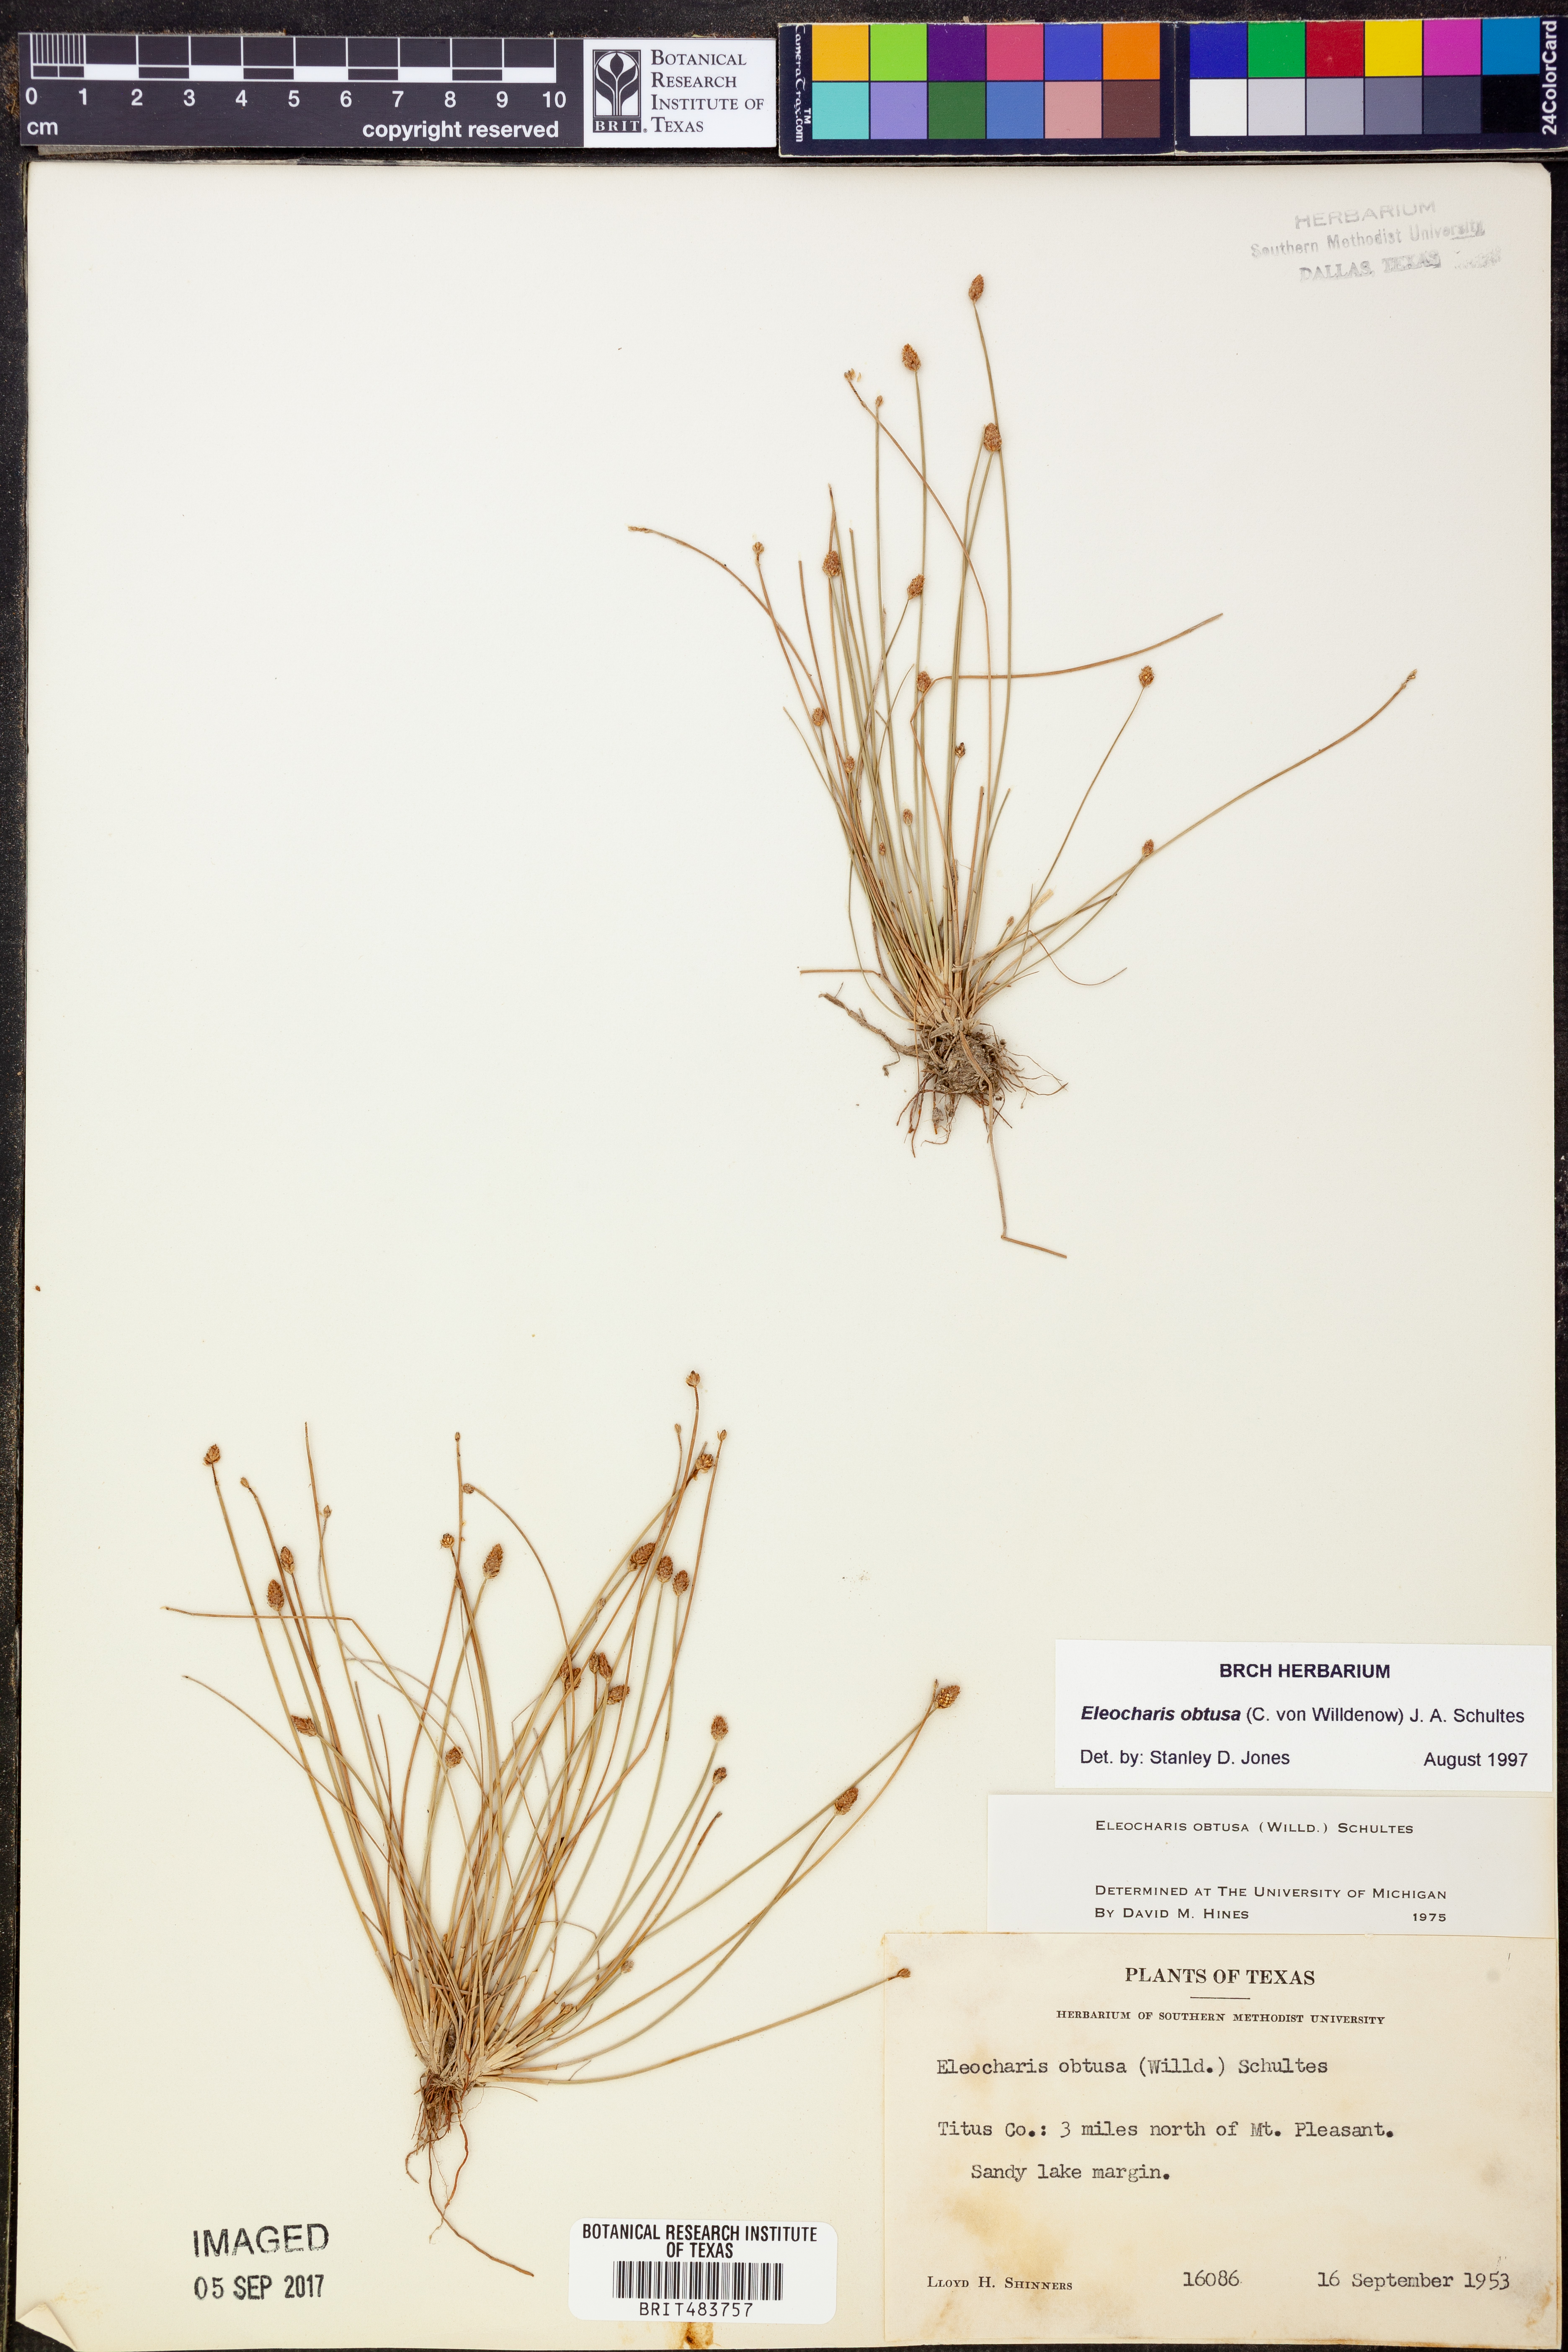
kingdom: Plantae
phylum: Tracheophyta
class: Liliopsida
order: Poales
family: Cyperaceae
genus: Eleocharis
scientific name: Eleocharis obtusa
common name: Blunt spikerush
